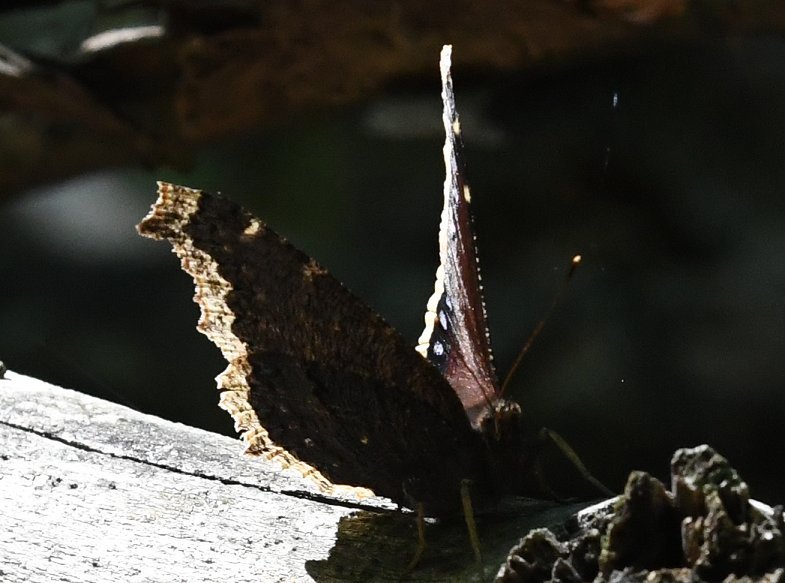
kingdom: Animalia
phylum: Arthropoda
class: Insecta
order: Lepidoptera
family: Nymphalidae
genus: Nymphalis
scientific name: Nymphalis antiopa
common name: Mourning Cloak
